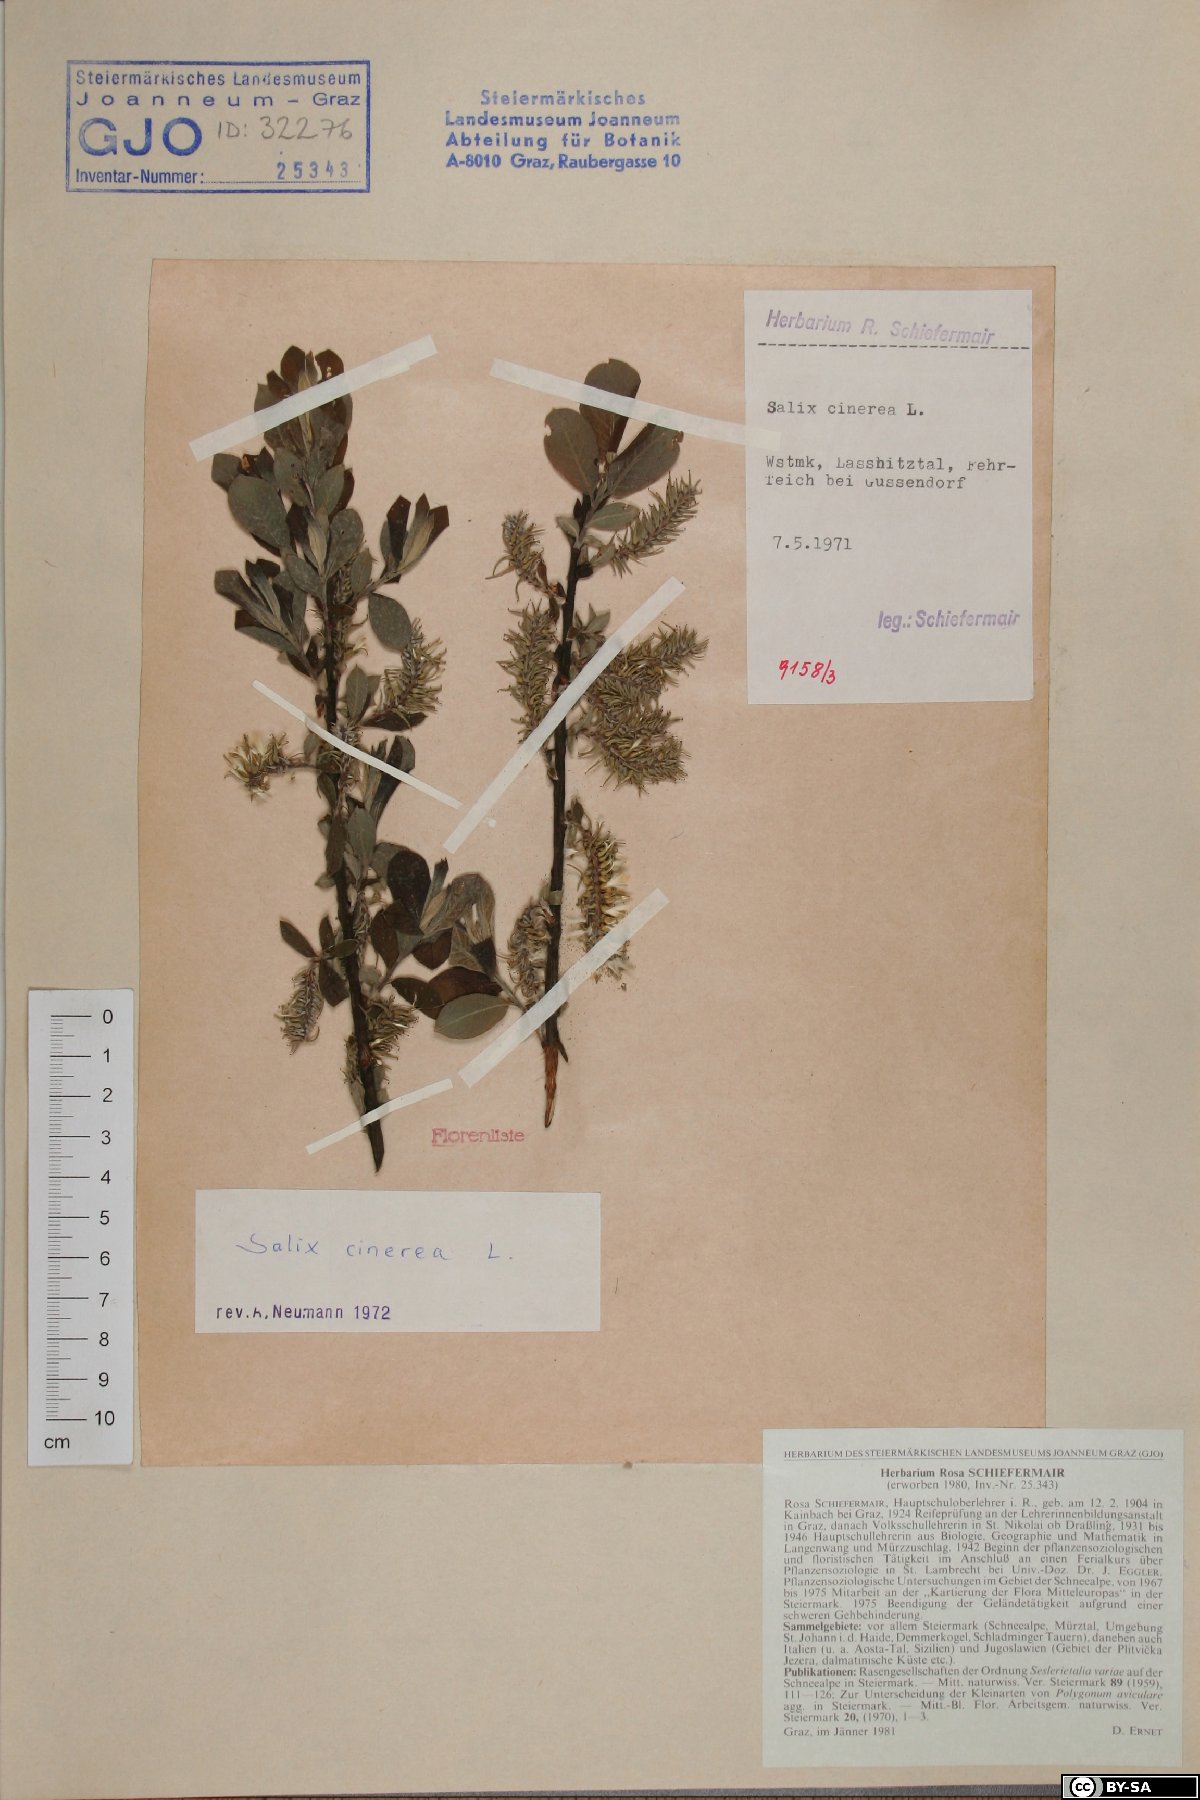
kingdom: Plantae
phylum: Tracheophyta
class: Magnoliopsida
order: Malpighiales
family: Salicaceae
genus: Salix
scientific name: Salix cinerea
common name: Common sallow
